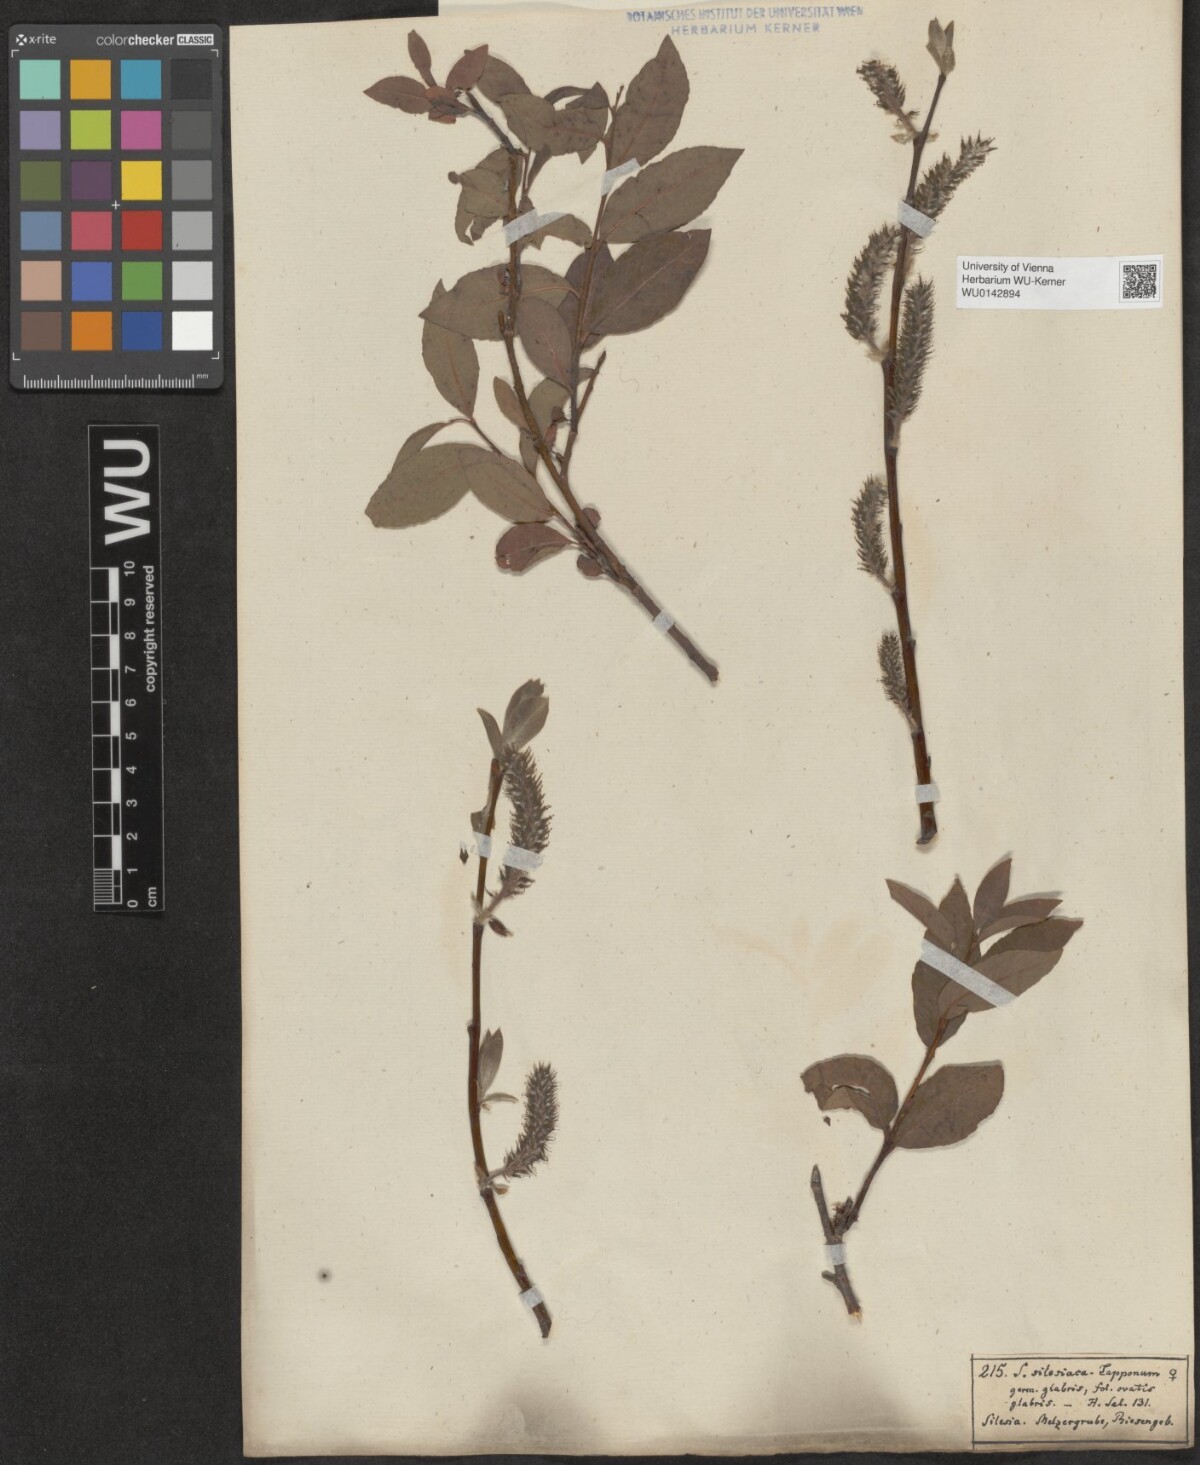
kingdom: Plantae
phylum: Tracheophyta
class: Magnoliopsida
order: Malpighiales
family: Salicaceae
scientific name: Salicaceae
